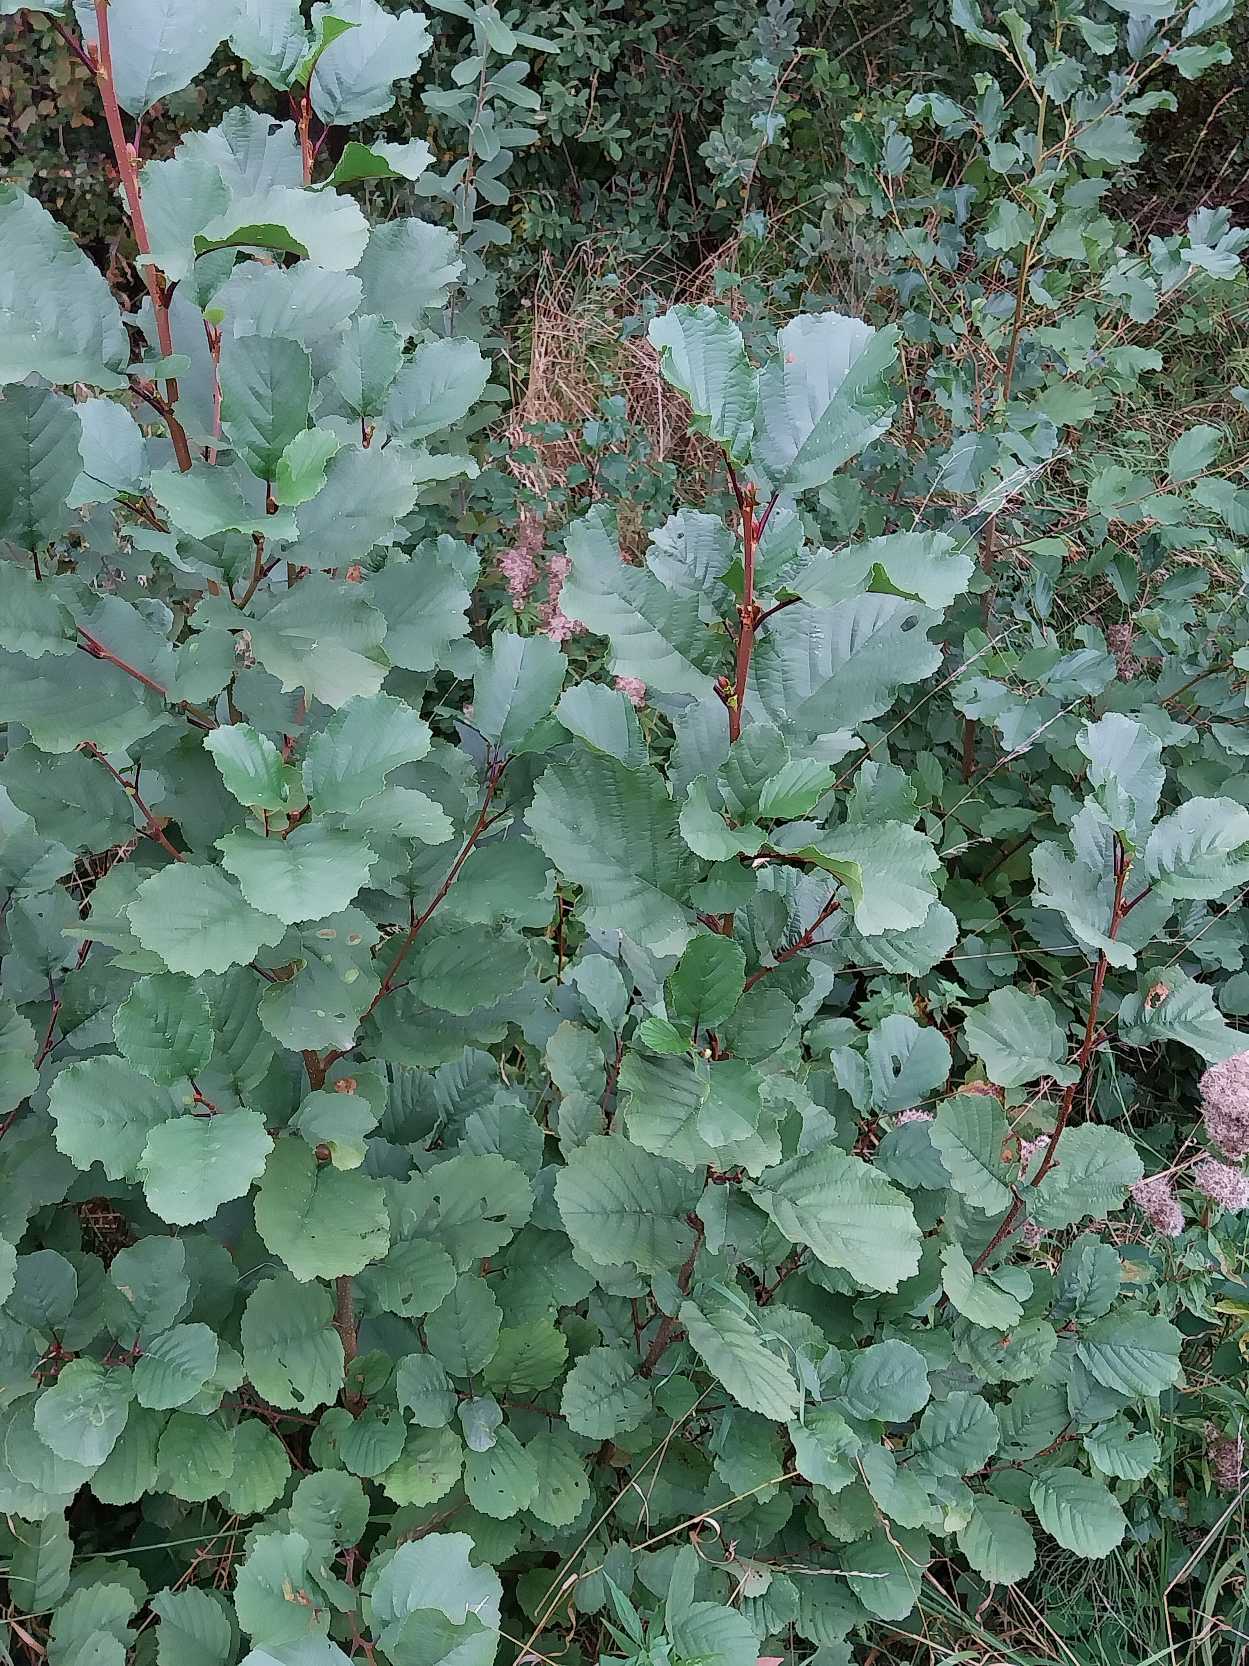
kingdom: Plantae
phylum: Tracheophyta
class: Magnoliopsida
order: Fagales
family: Betulaceae
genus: Alnus
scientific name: Alnus glutinosa
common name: Rød-el
